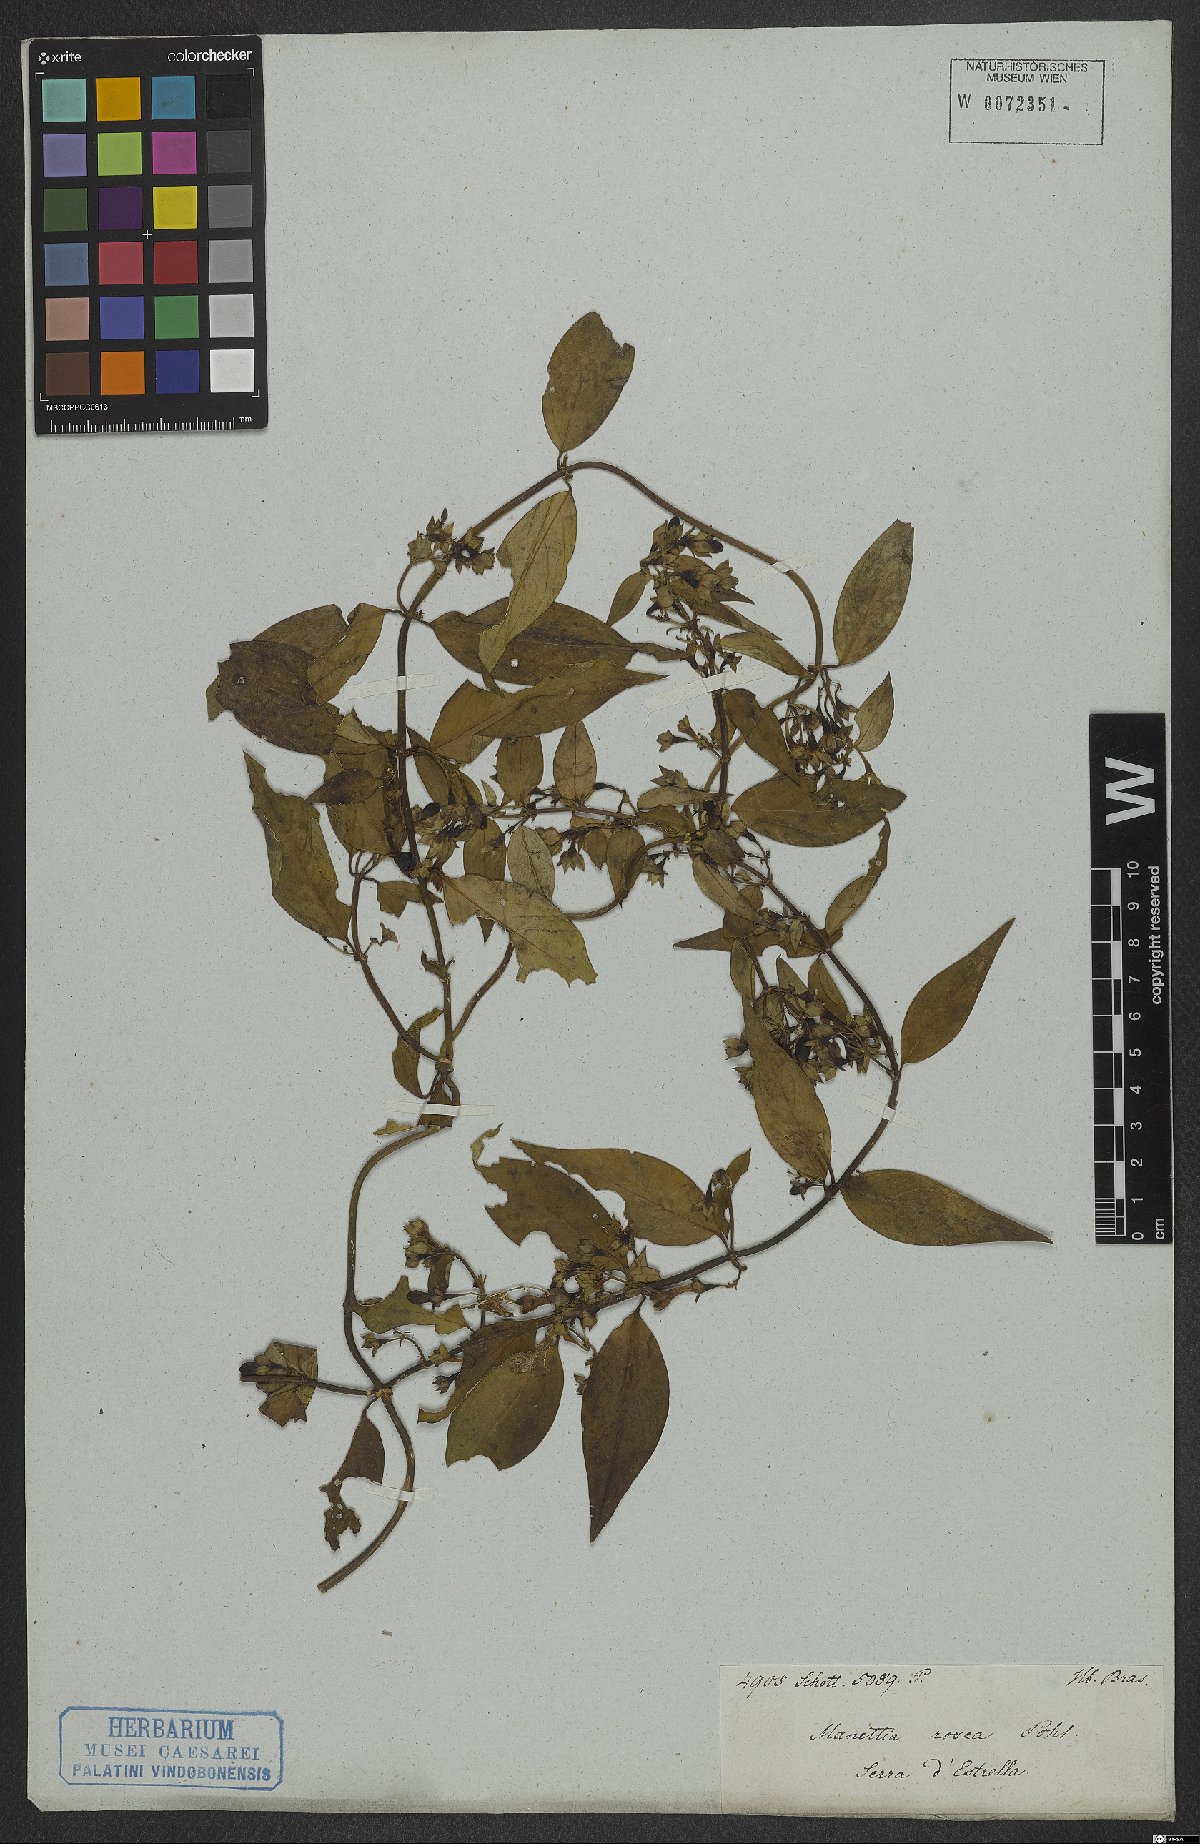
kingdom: Plantae
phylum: Tracheophyta
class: Magnoliopsida
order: Gentianales
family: Rubiaceae
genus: Manettia
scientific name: Manettia fimbriata
